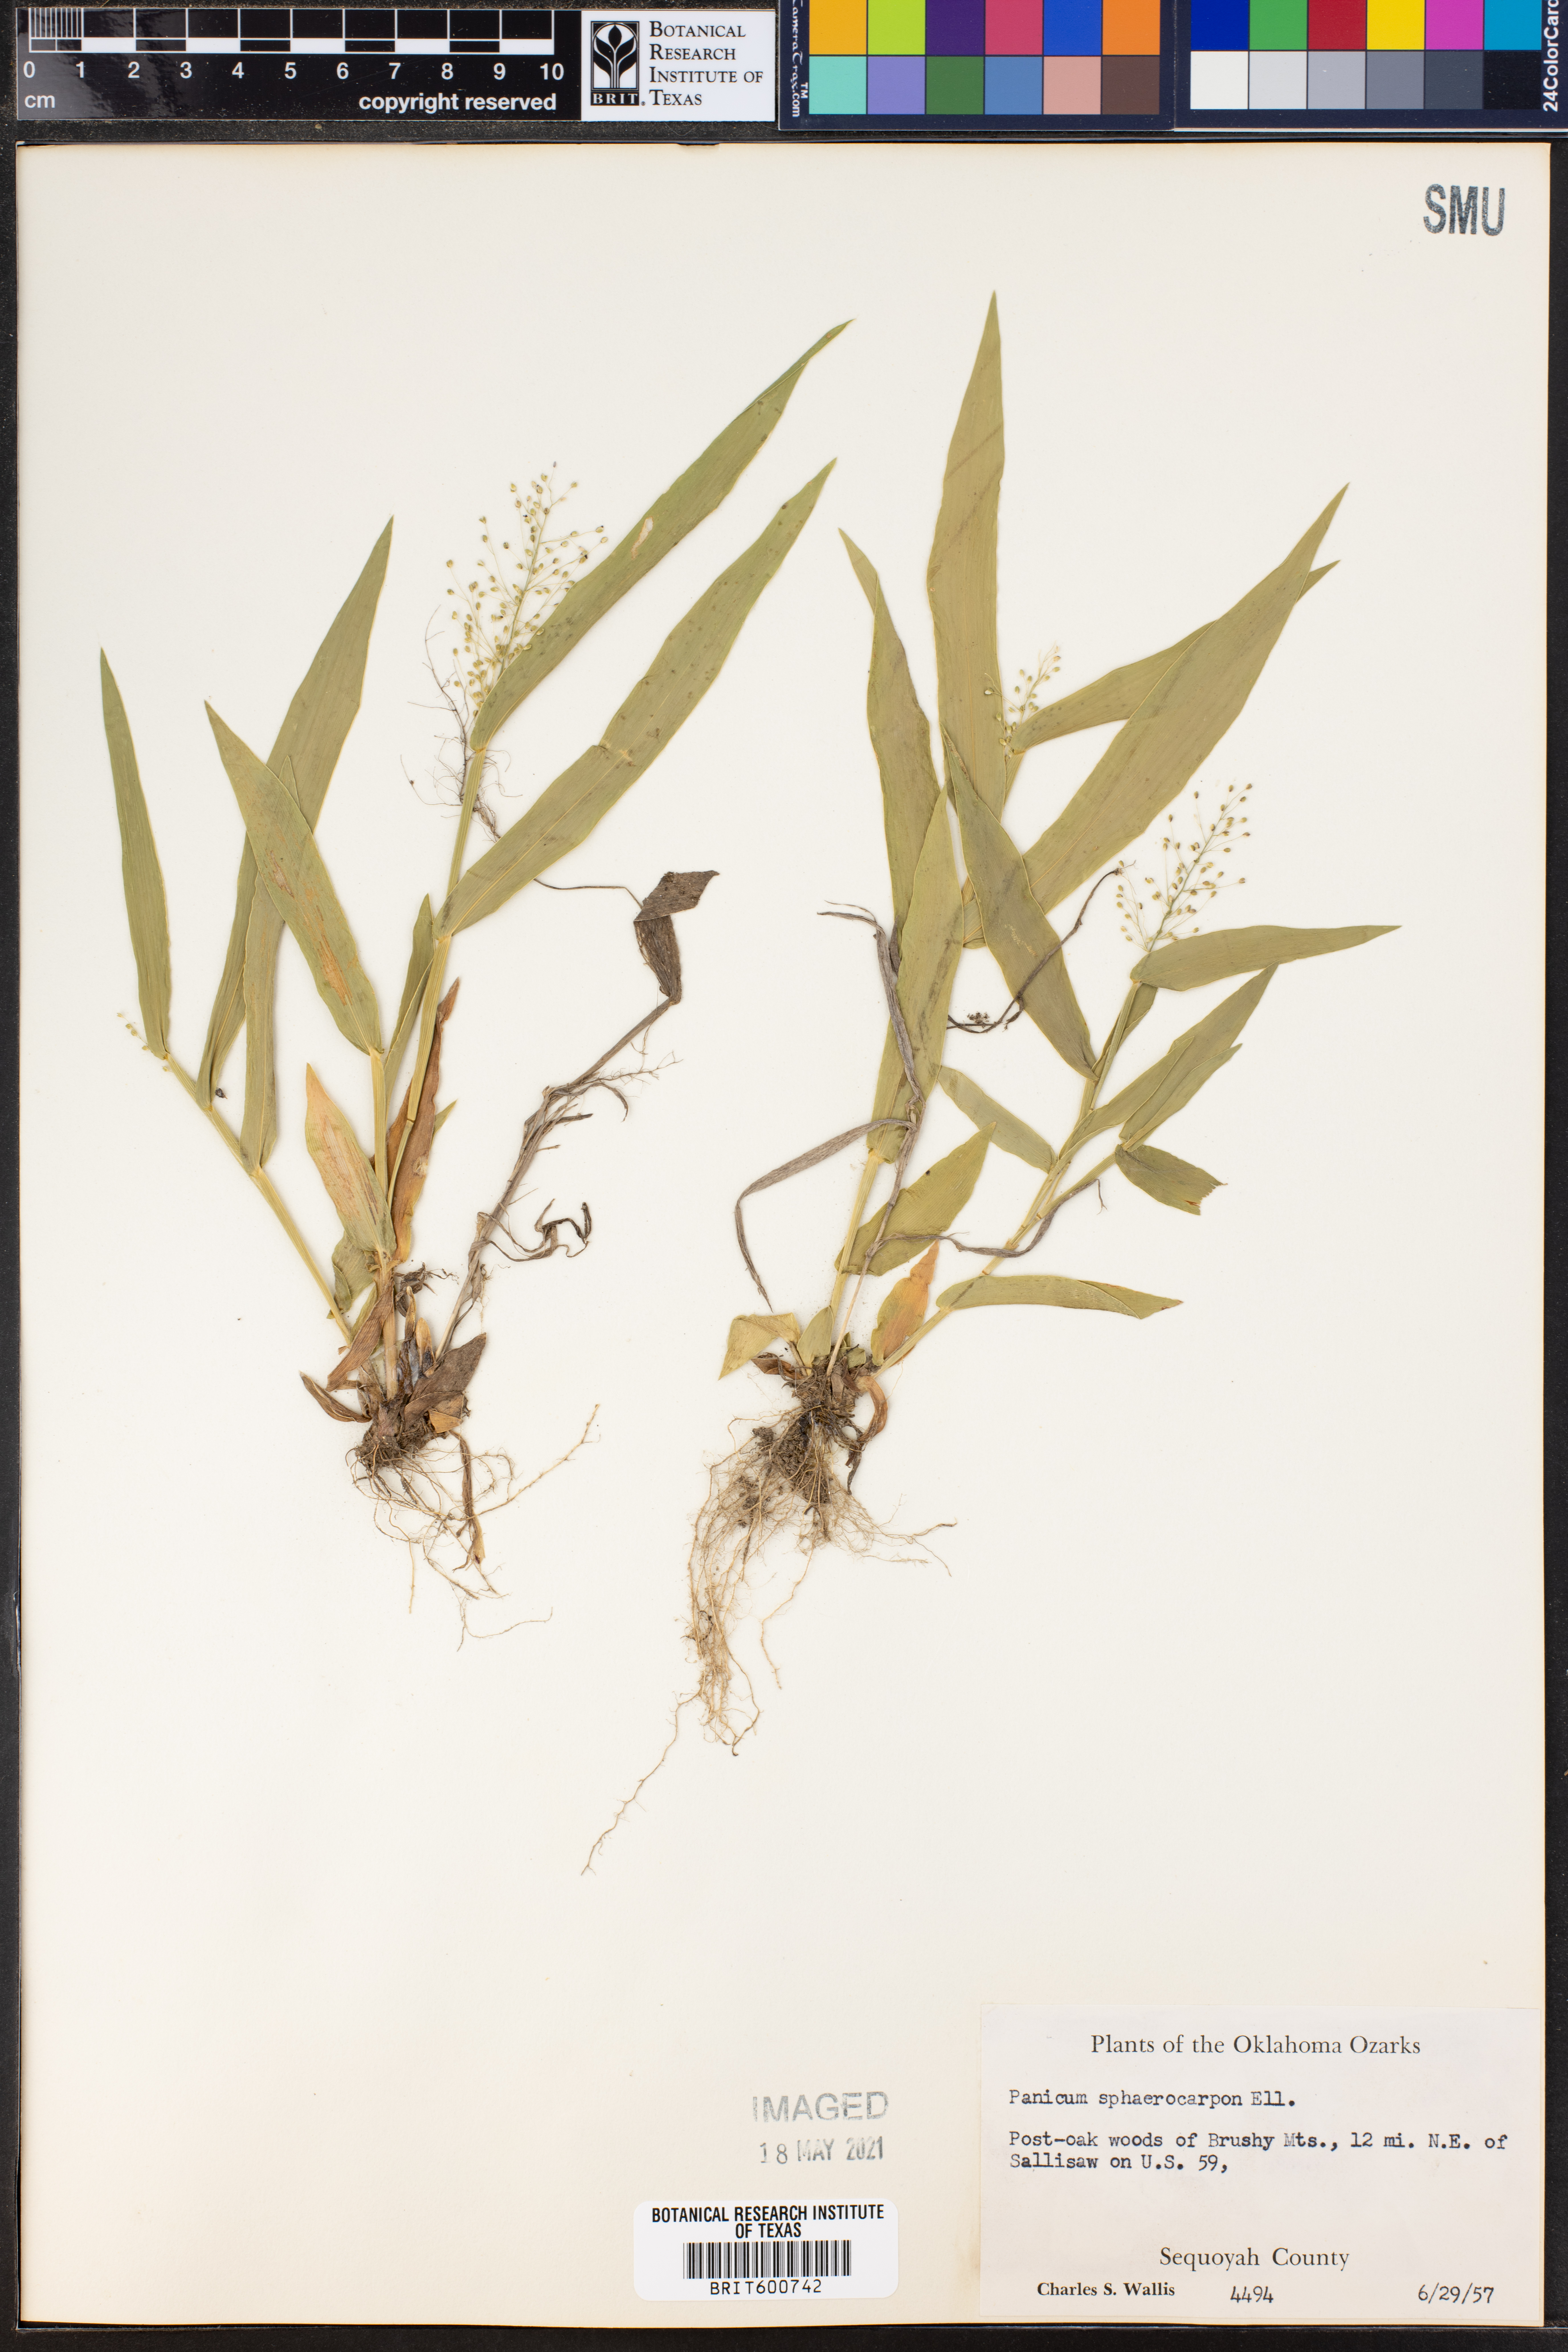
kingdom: Plantae
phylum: Tracheophyta
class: Liliopsida
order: Poales
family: Poaceae
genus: Dichanthelium
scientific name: Dichanthelium sphaerocarpon
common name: Round-fruited panicgrass
